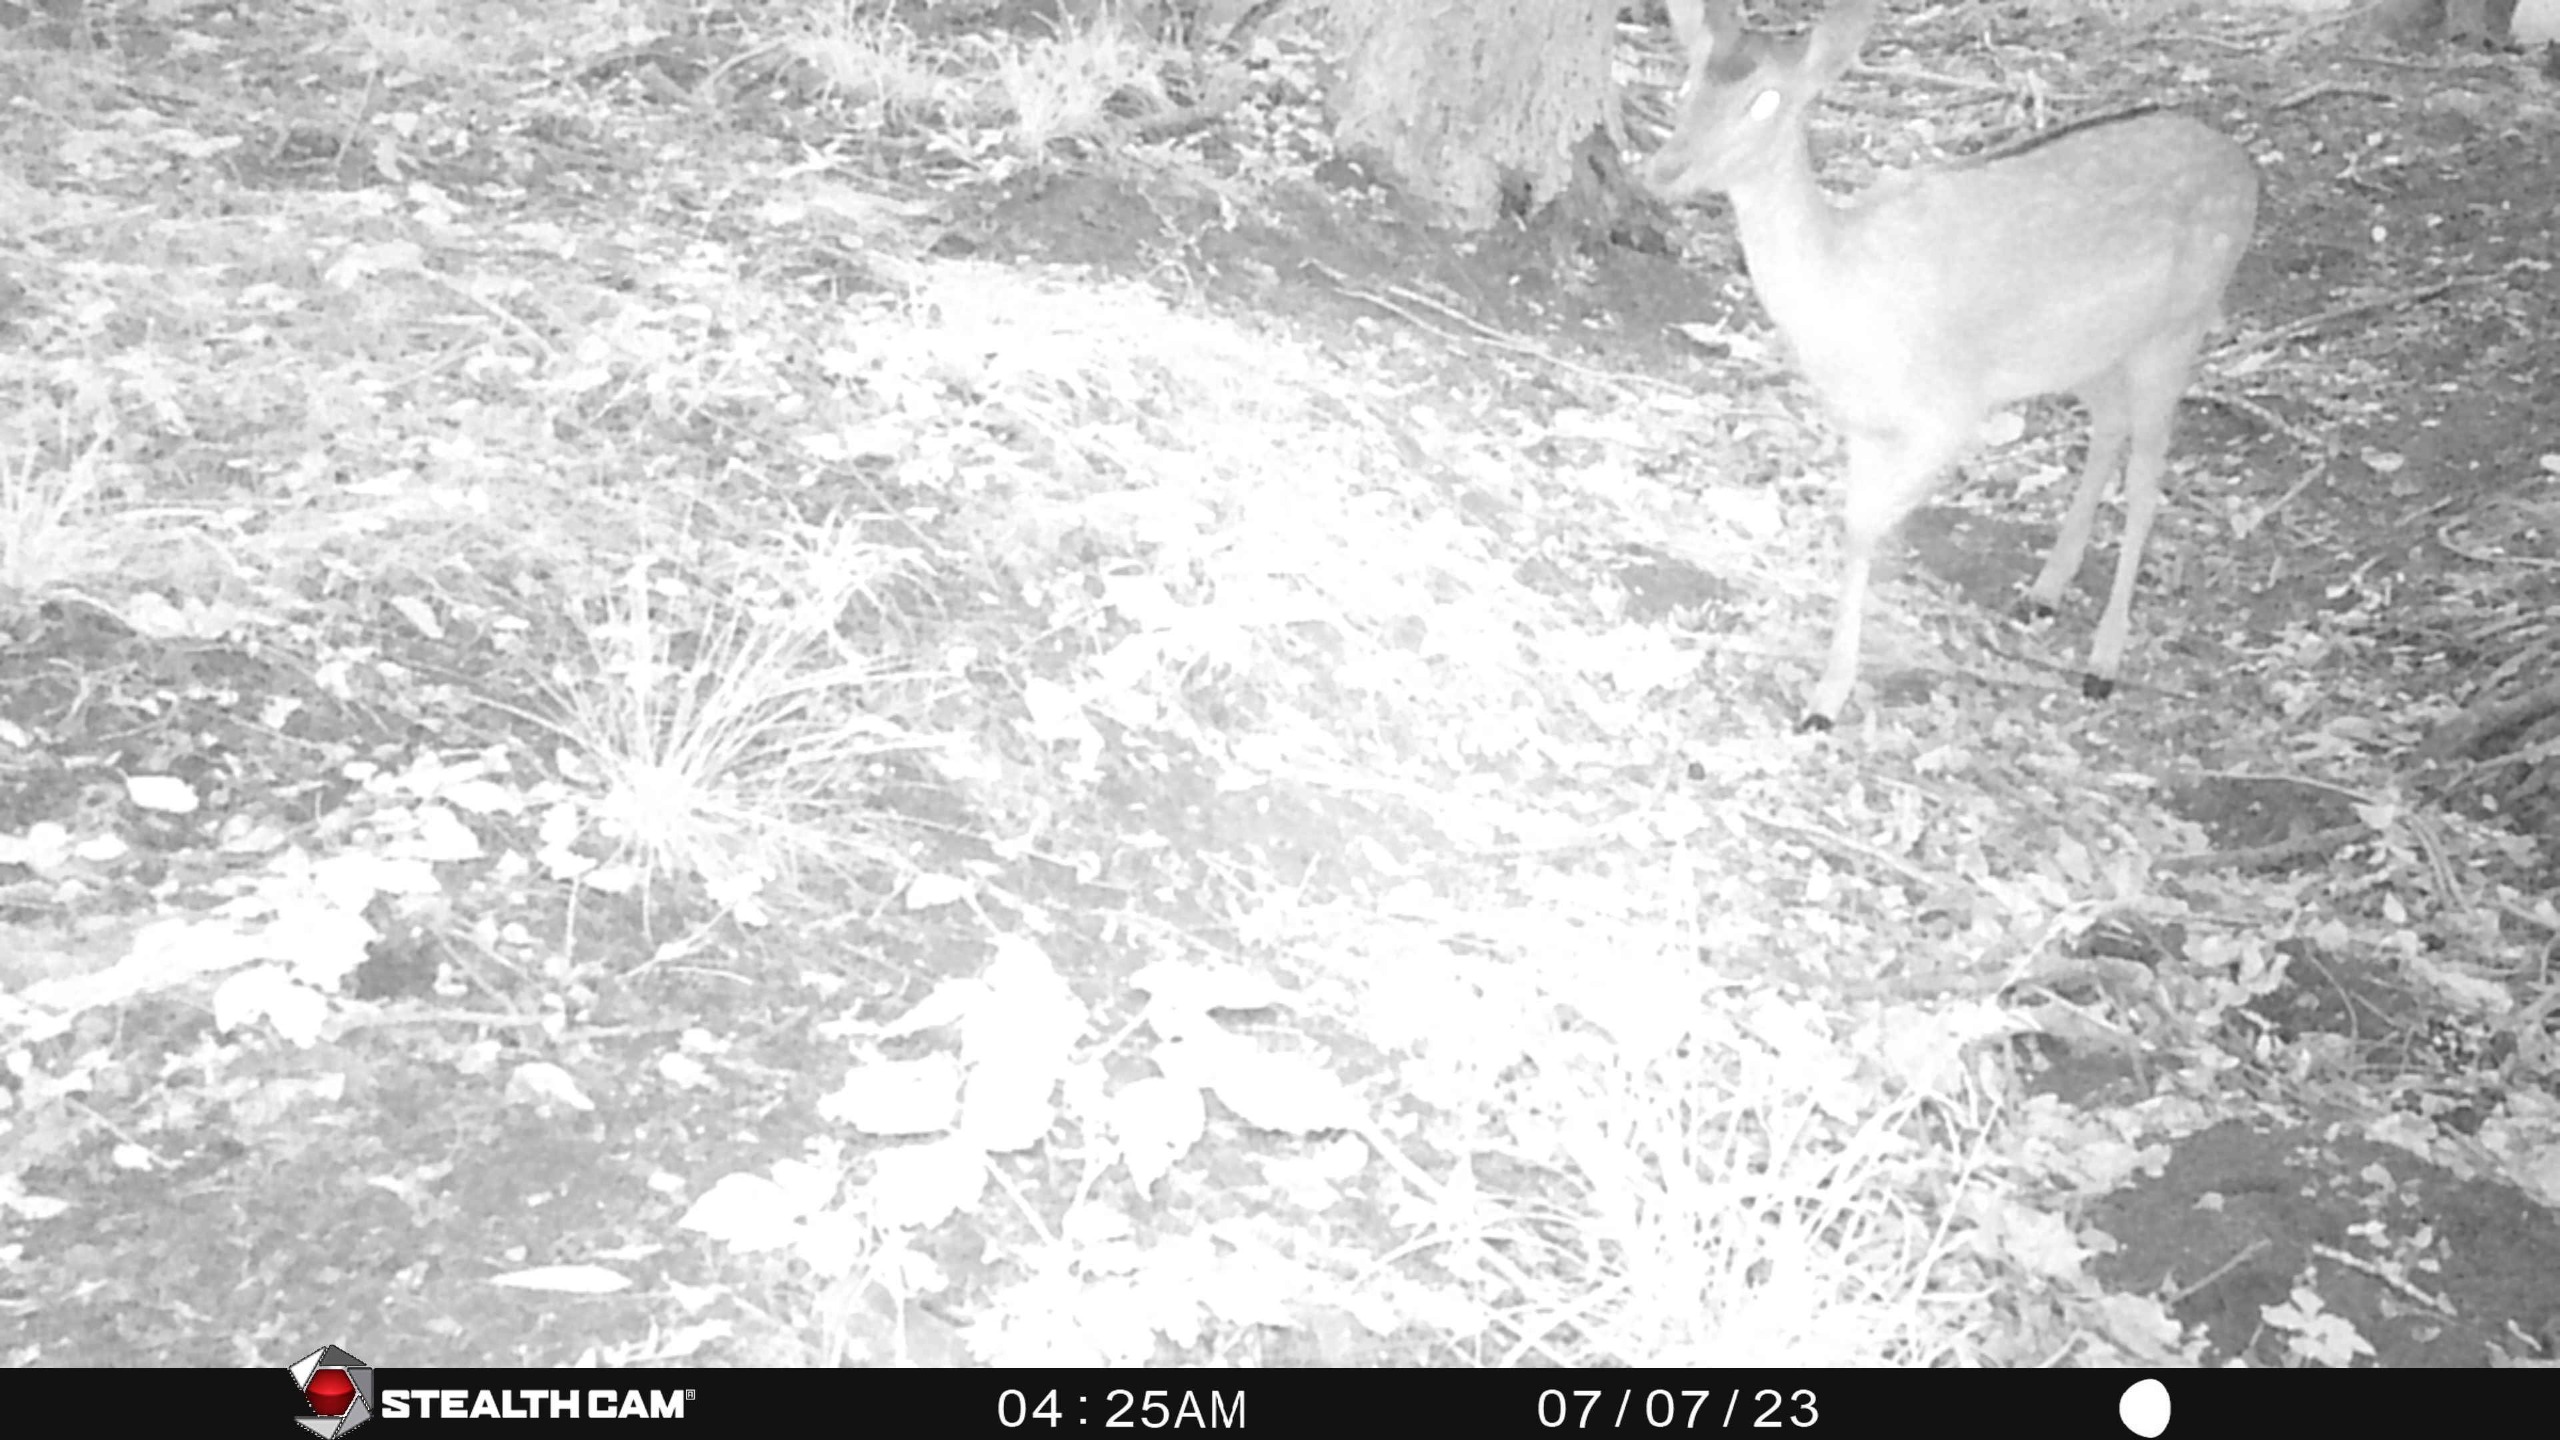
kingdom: Animalia
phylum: Chordata
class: Mammalia
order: Artiodactyla
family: Cervidae
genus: Dama
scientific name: Dama dama
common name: Dådyr
